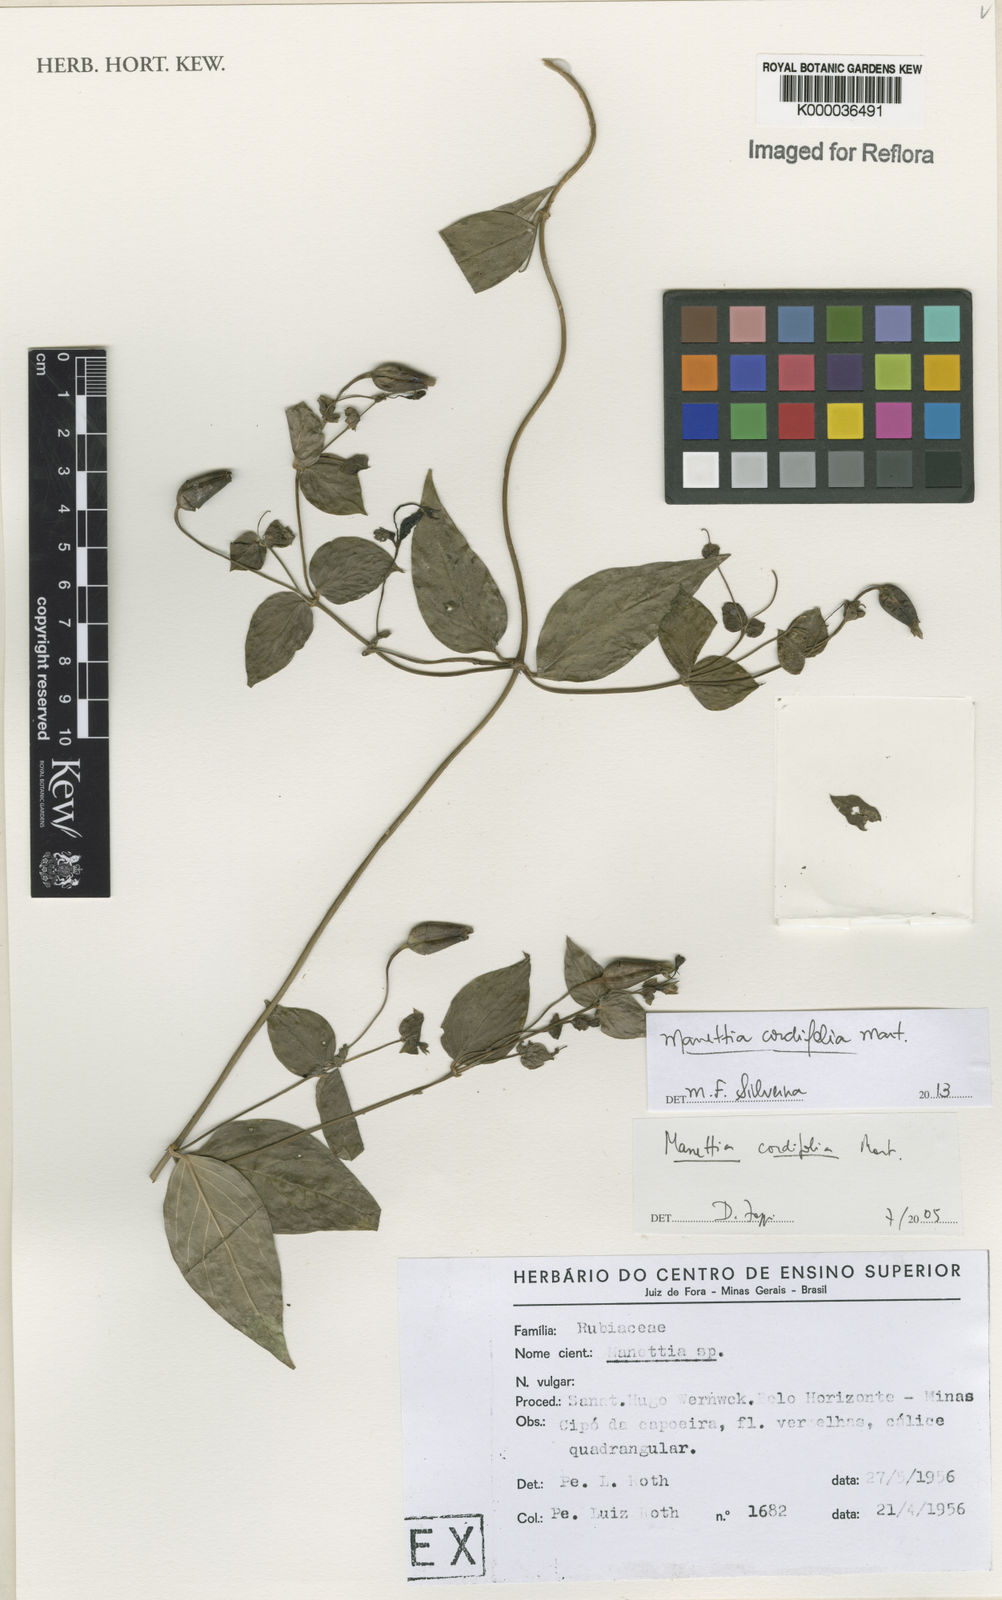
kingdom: Plantae
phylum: Tracheophyta
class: Magnoliopsida
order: Gentianales
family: Rubiaceae
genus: Manettia
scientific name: Manettia cordifolia
